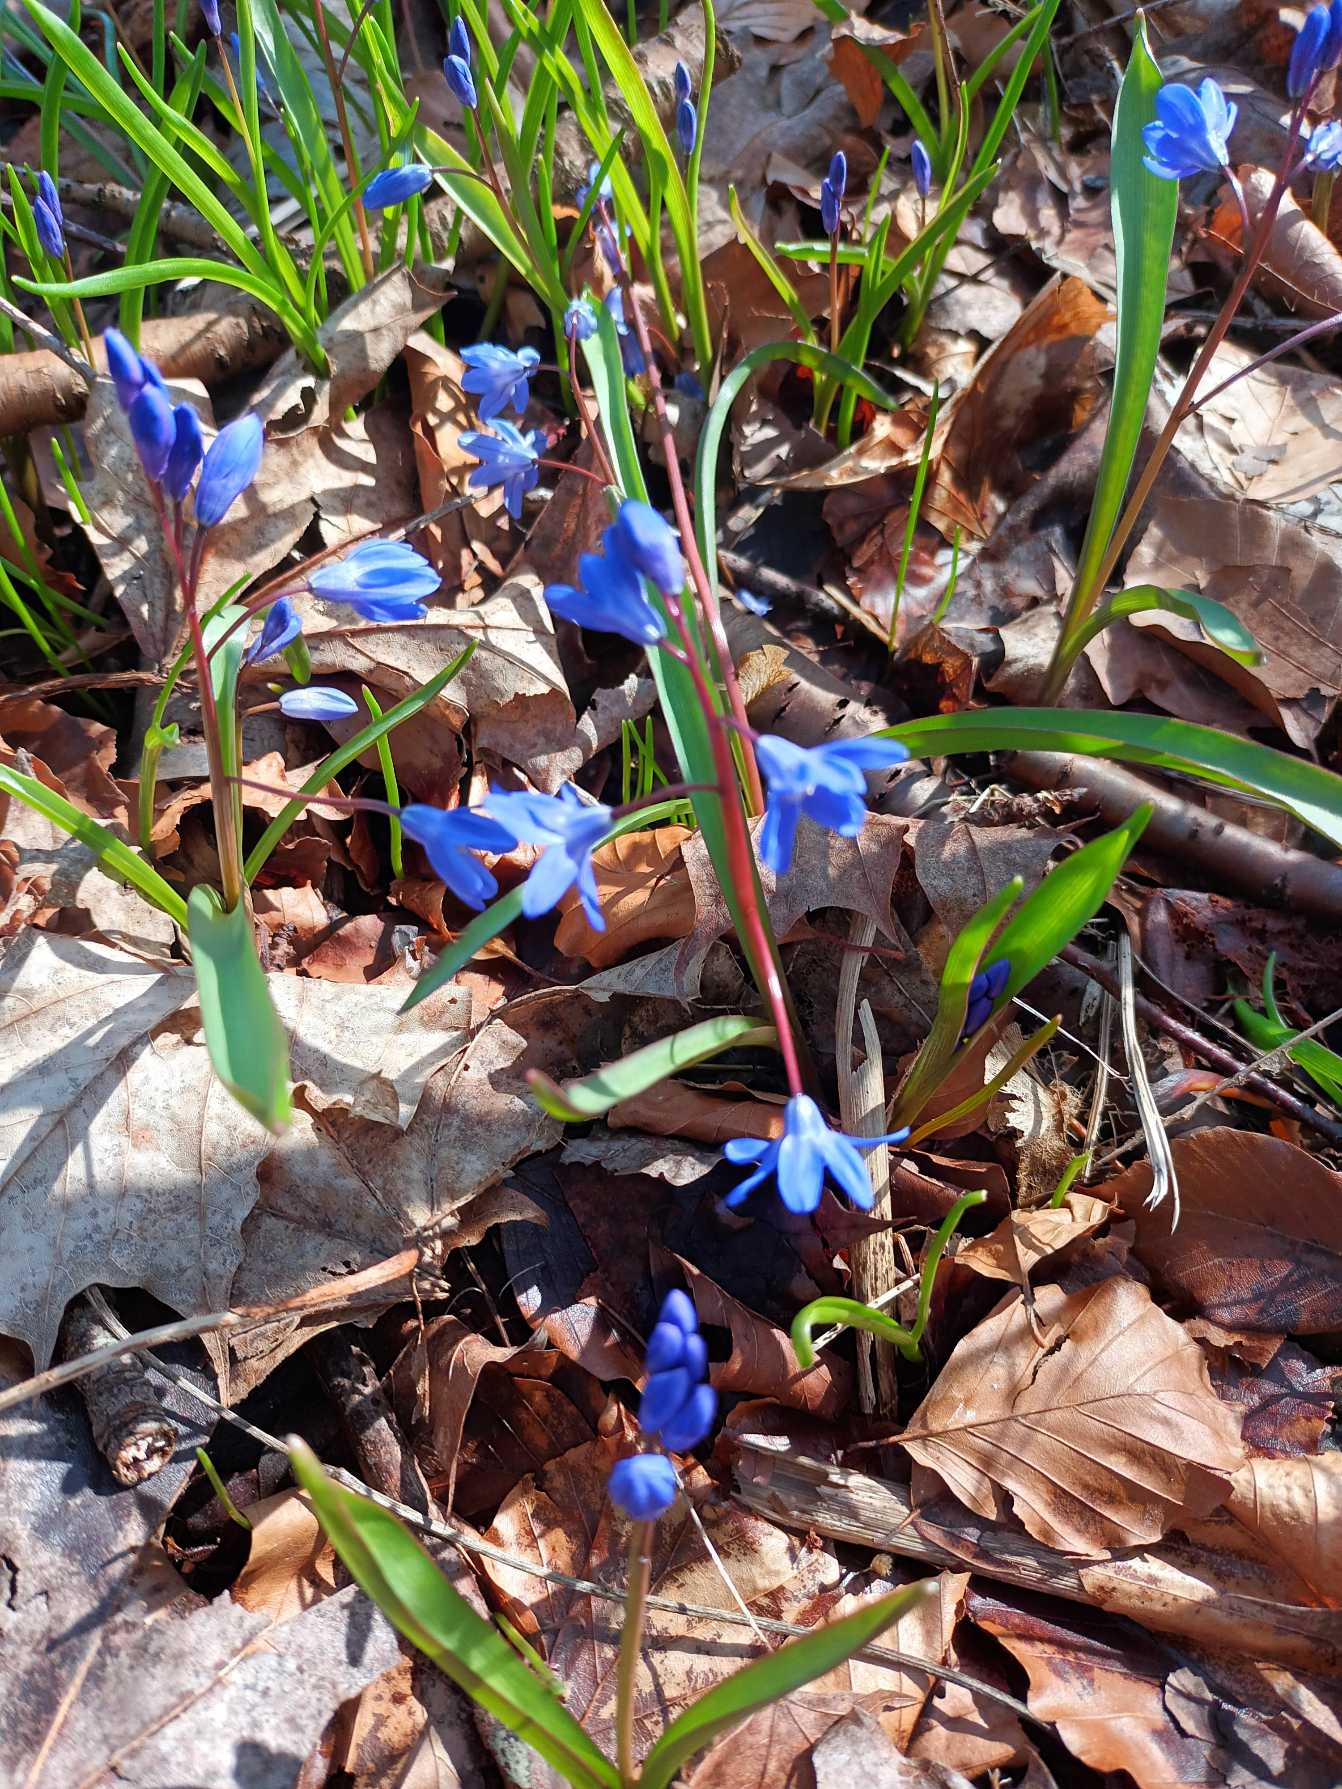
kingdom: Plantae
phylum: Tracheophyta
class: Liliopsida
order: Asparagales
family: Asparagaceae
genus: Scilla
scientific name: Scilla sardensis
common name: Liden snepryd
